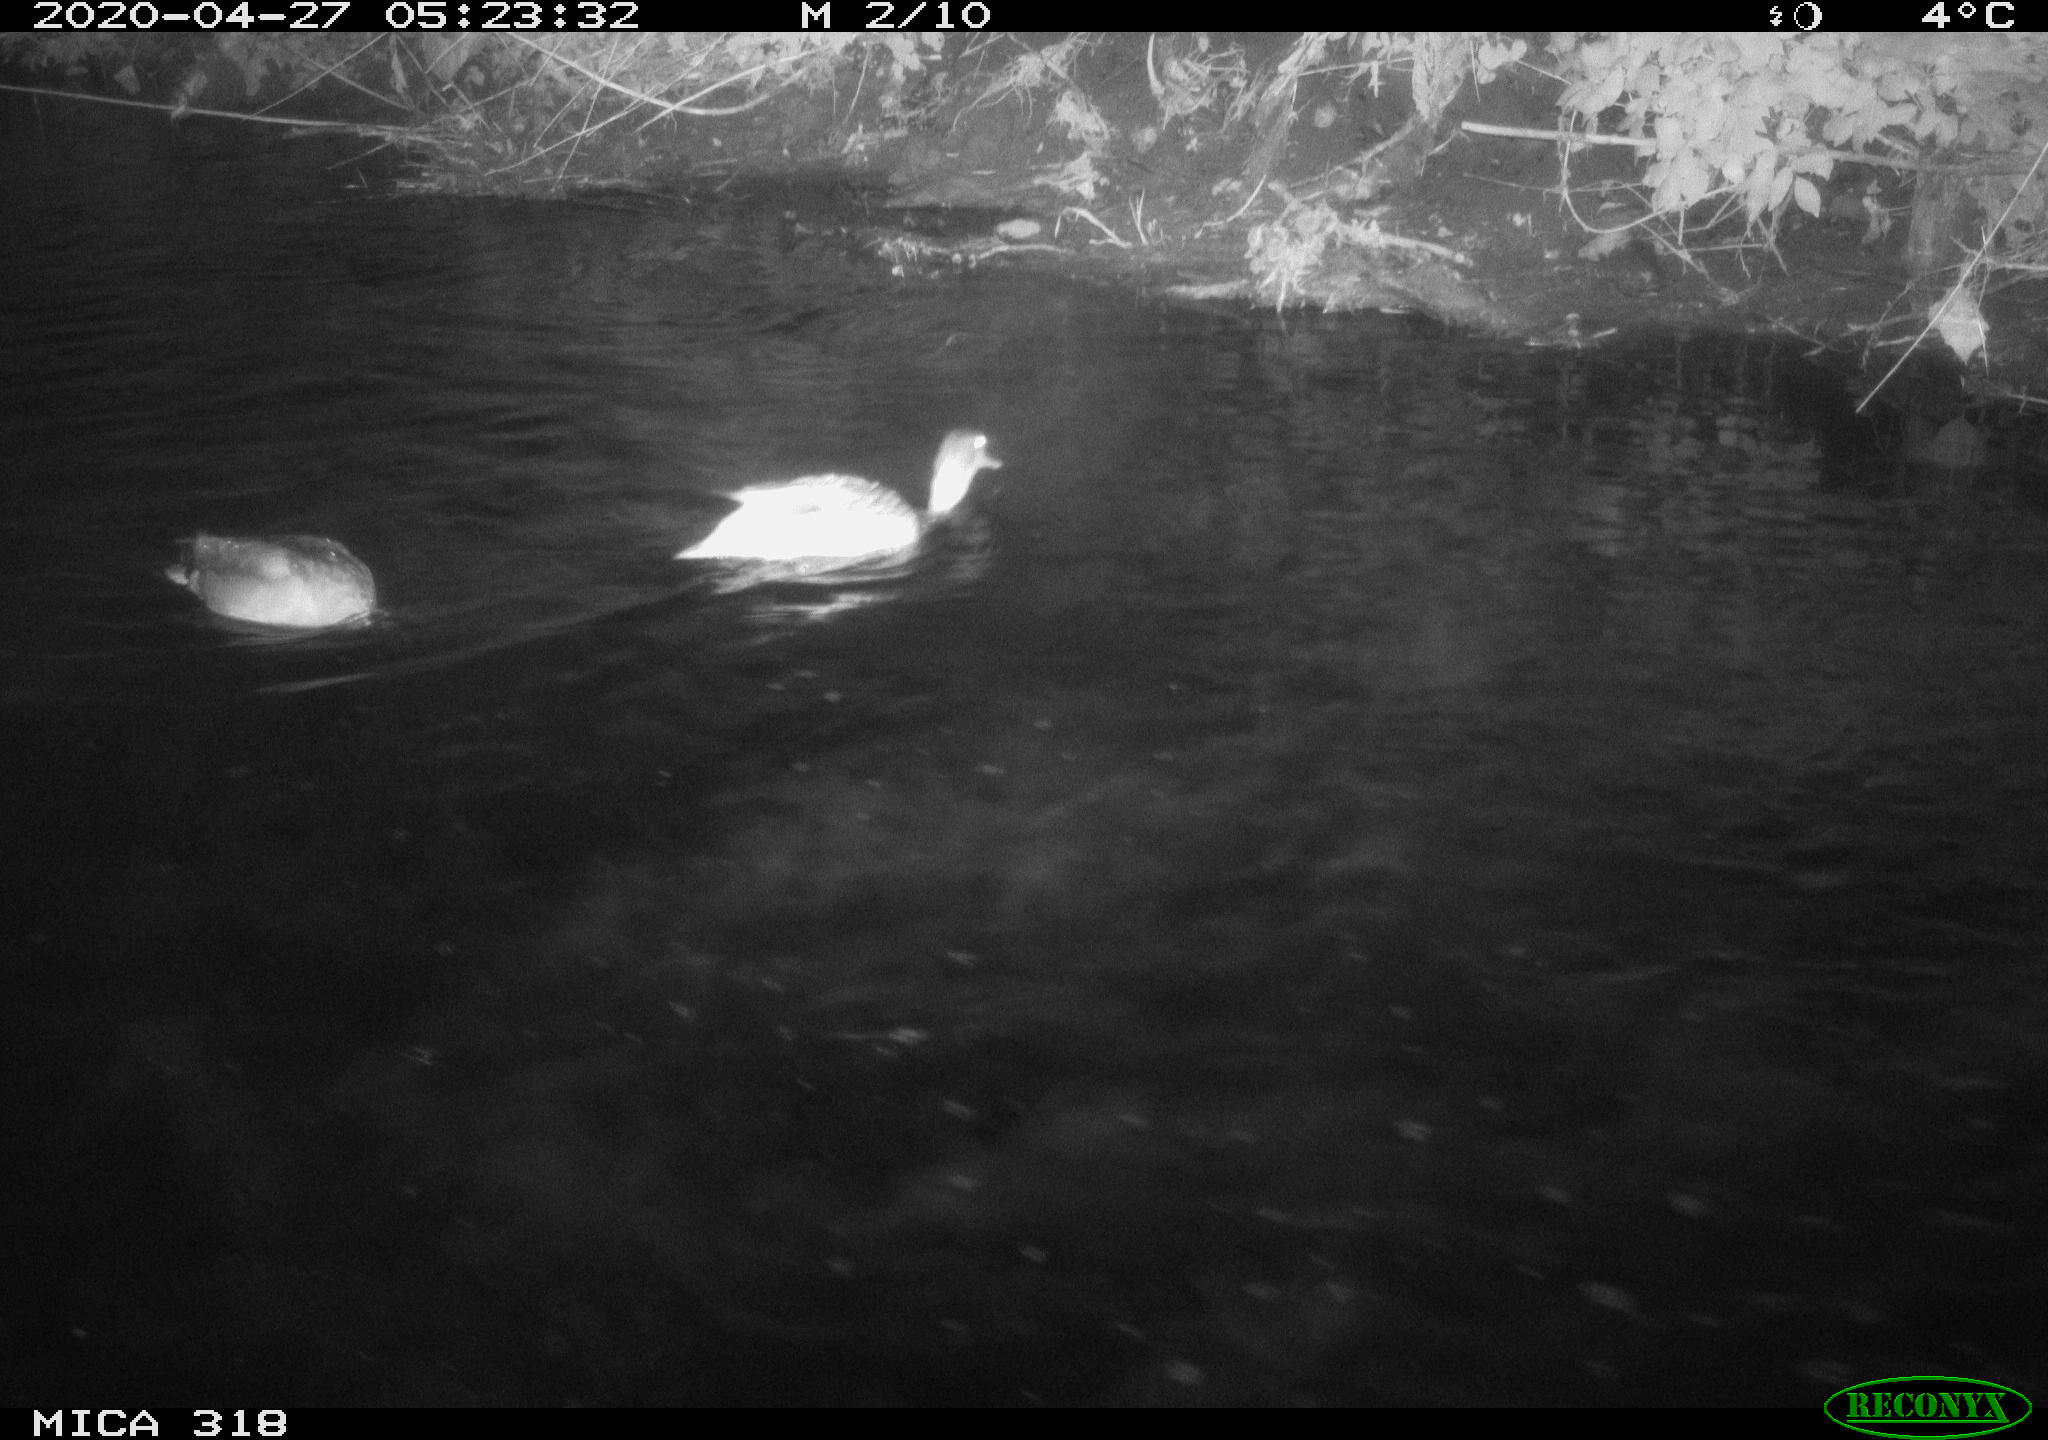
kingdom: Animalia
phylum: Chordata
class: Aves
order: Anseriformes
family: Anatidae
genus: Anas
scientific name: Anas platyrhynchos
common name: Mallard
